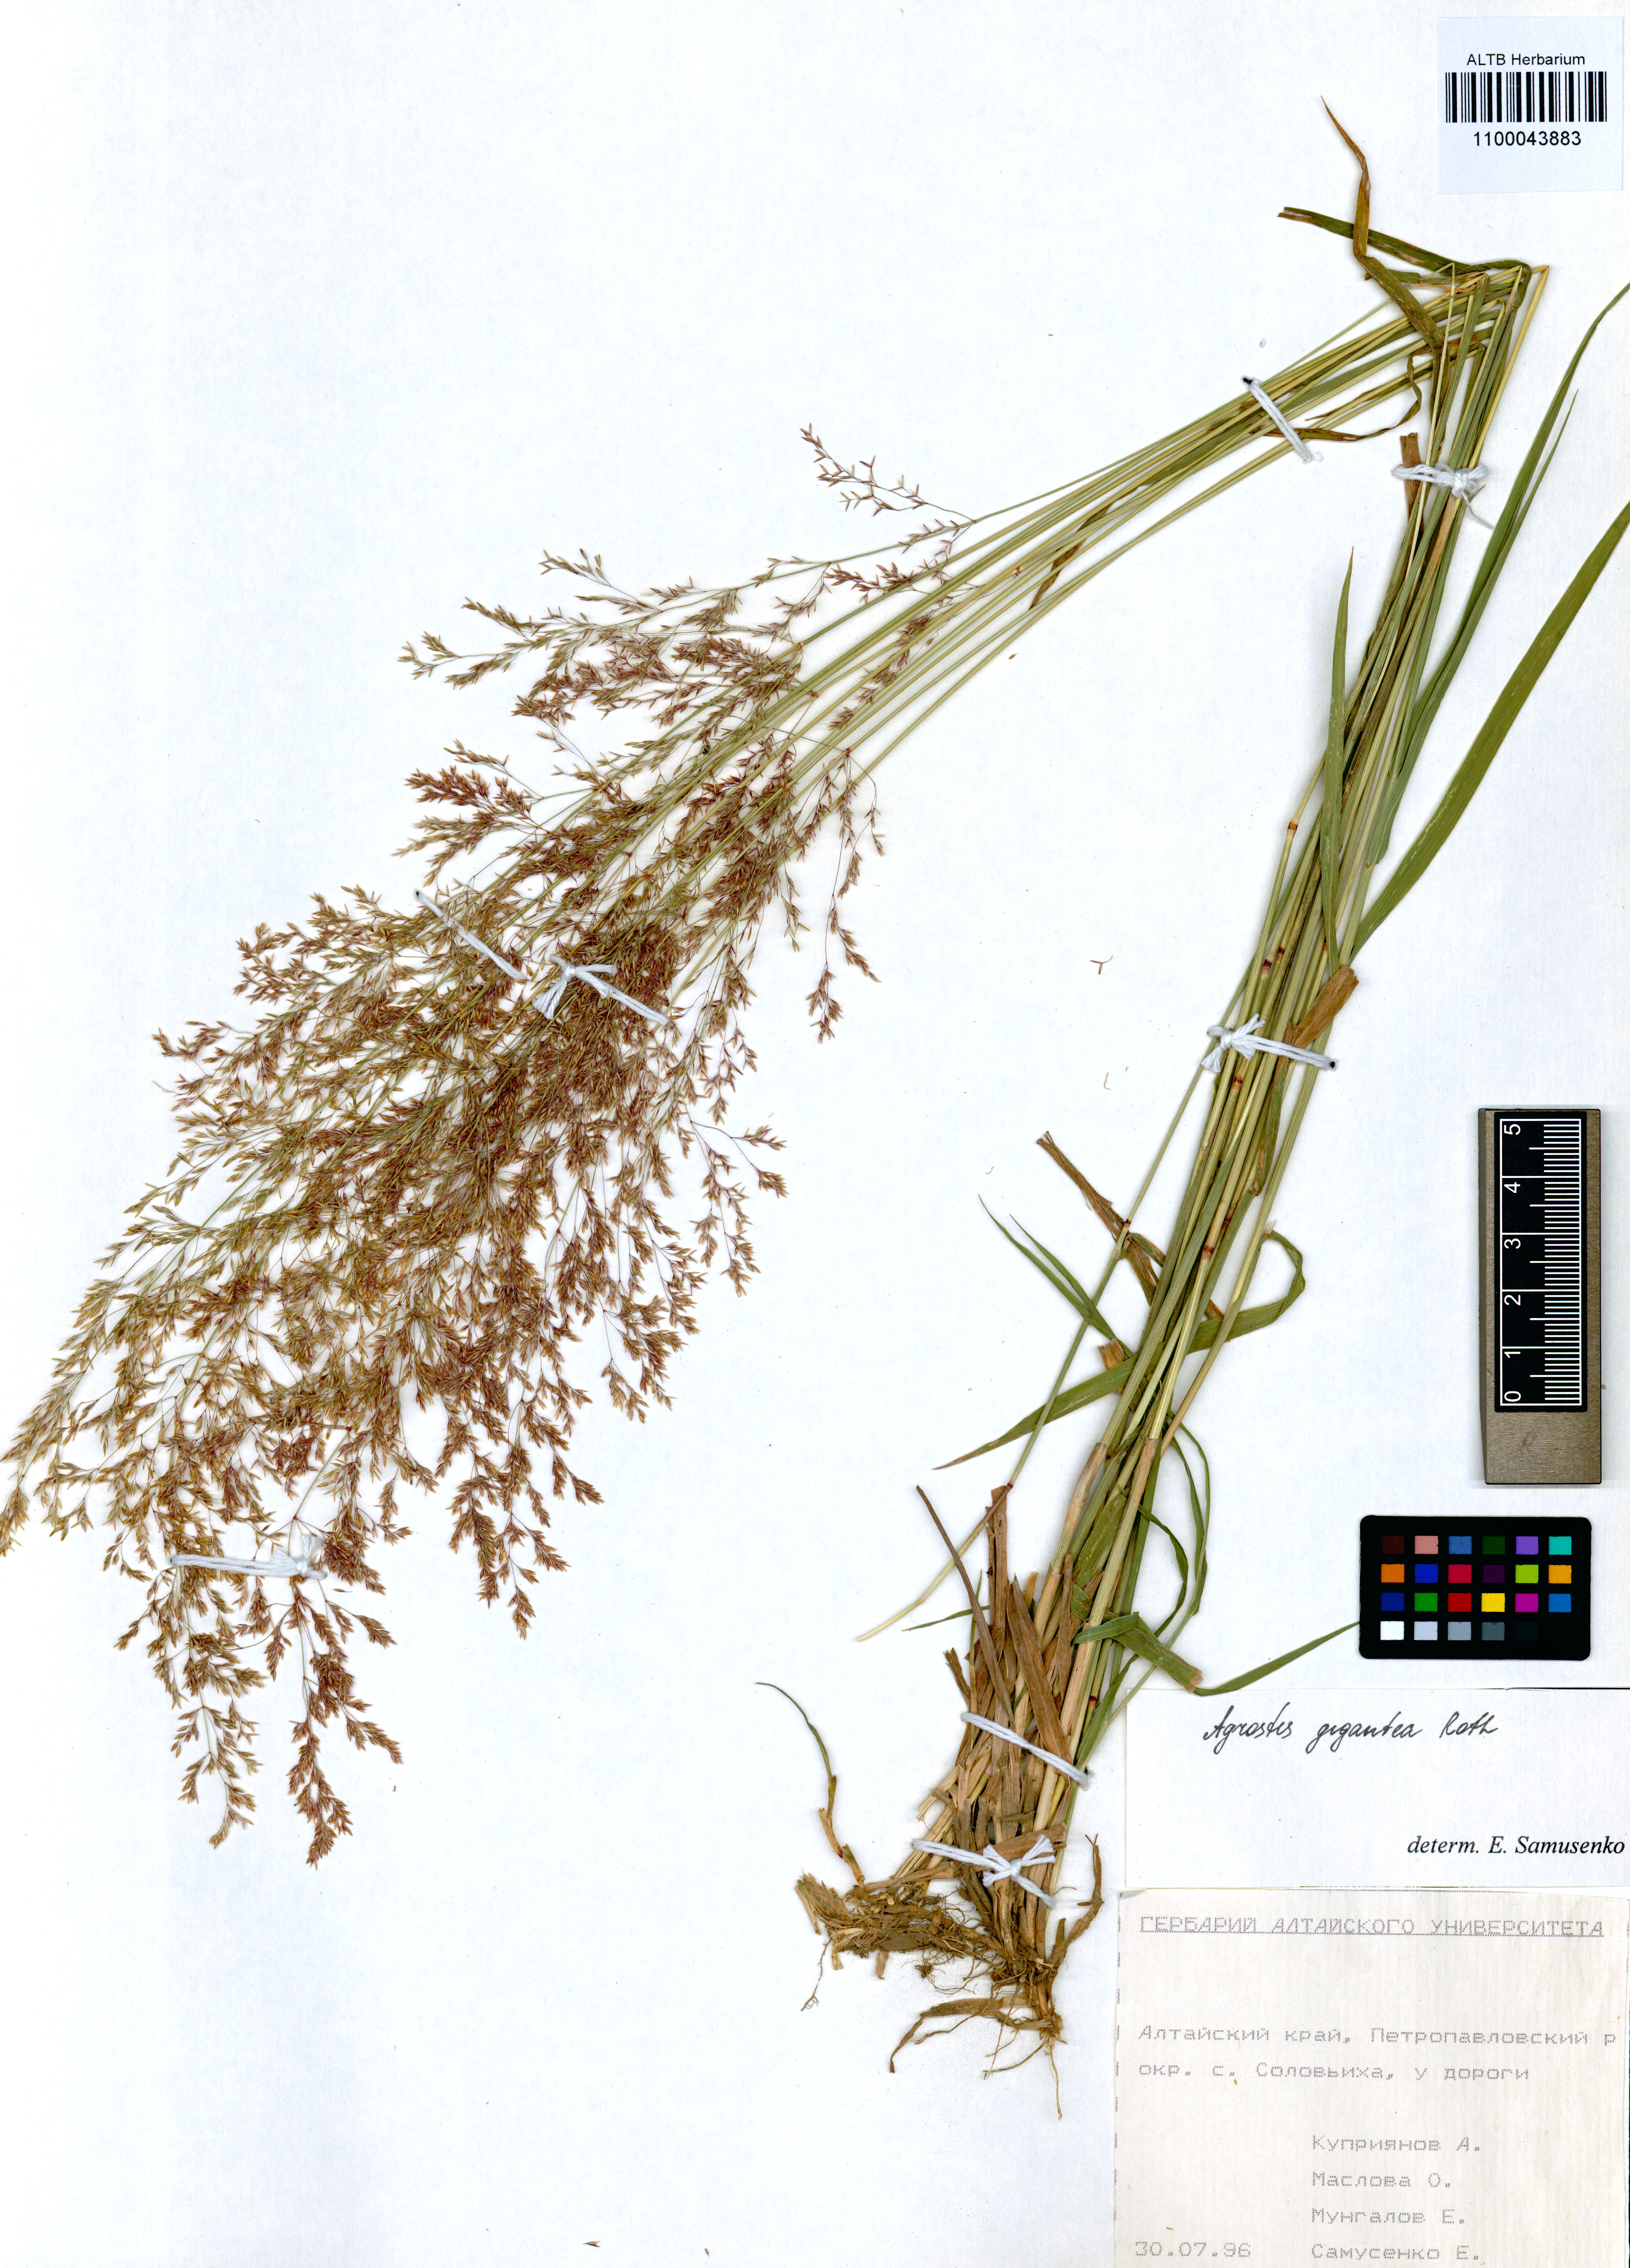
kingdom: Plantae
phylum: Tracheophyta
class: Liliopsida
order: Poales
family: Poaceae
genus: Agrostis
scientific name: Agrostis gigantea
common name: Black bent
